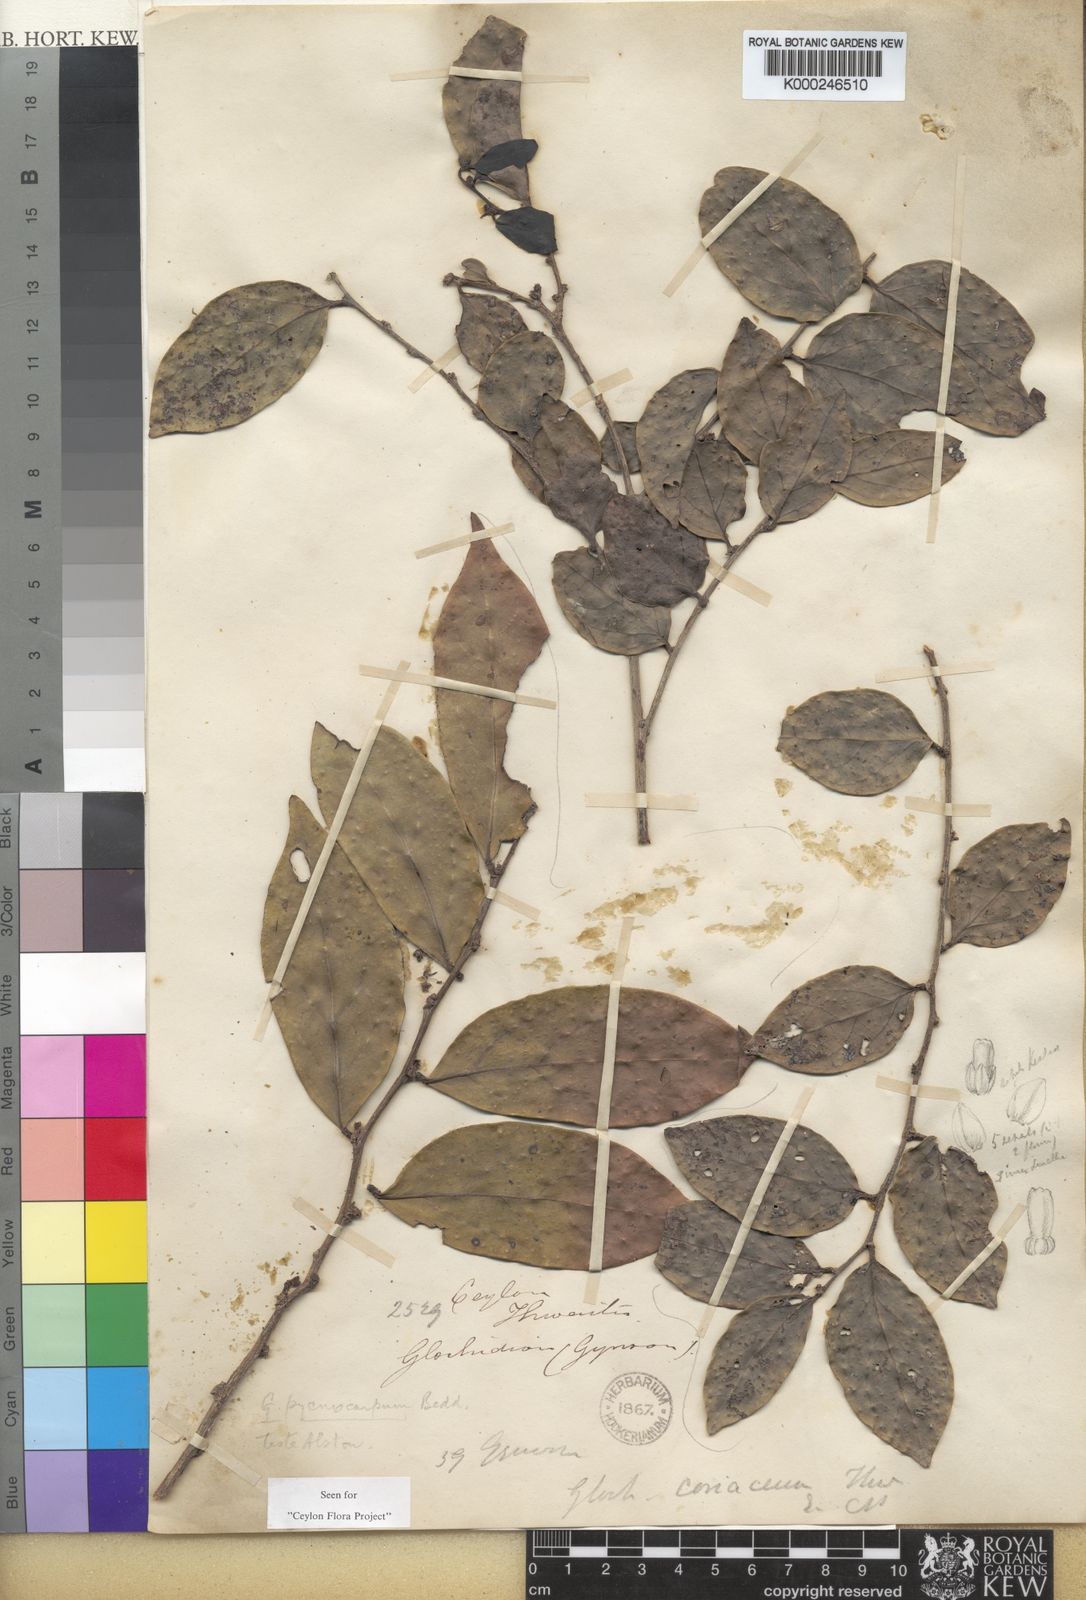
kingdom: Plantae
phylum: Tracheophyta
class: Magnoliopsida
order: Malpighiales
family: Phyllanthaceae
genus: Glochidion
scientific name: Glochidion
